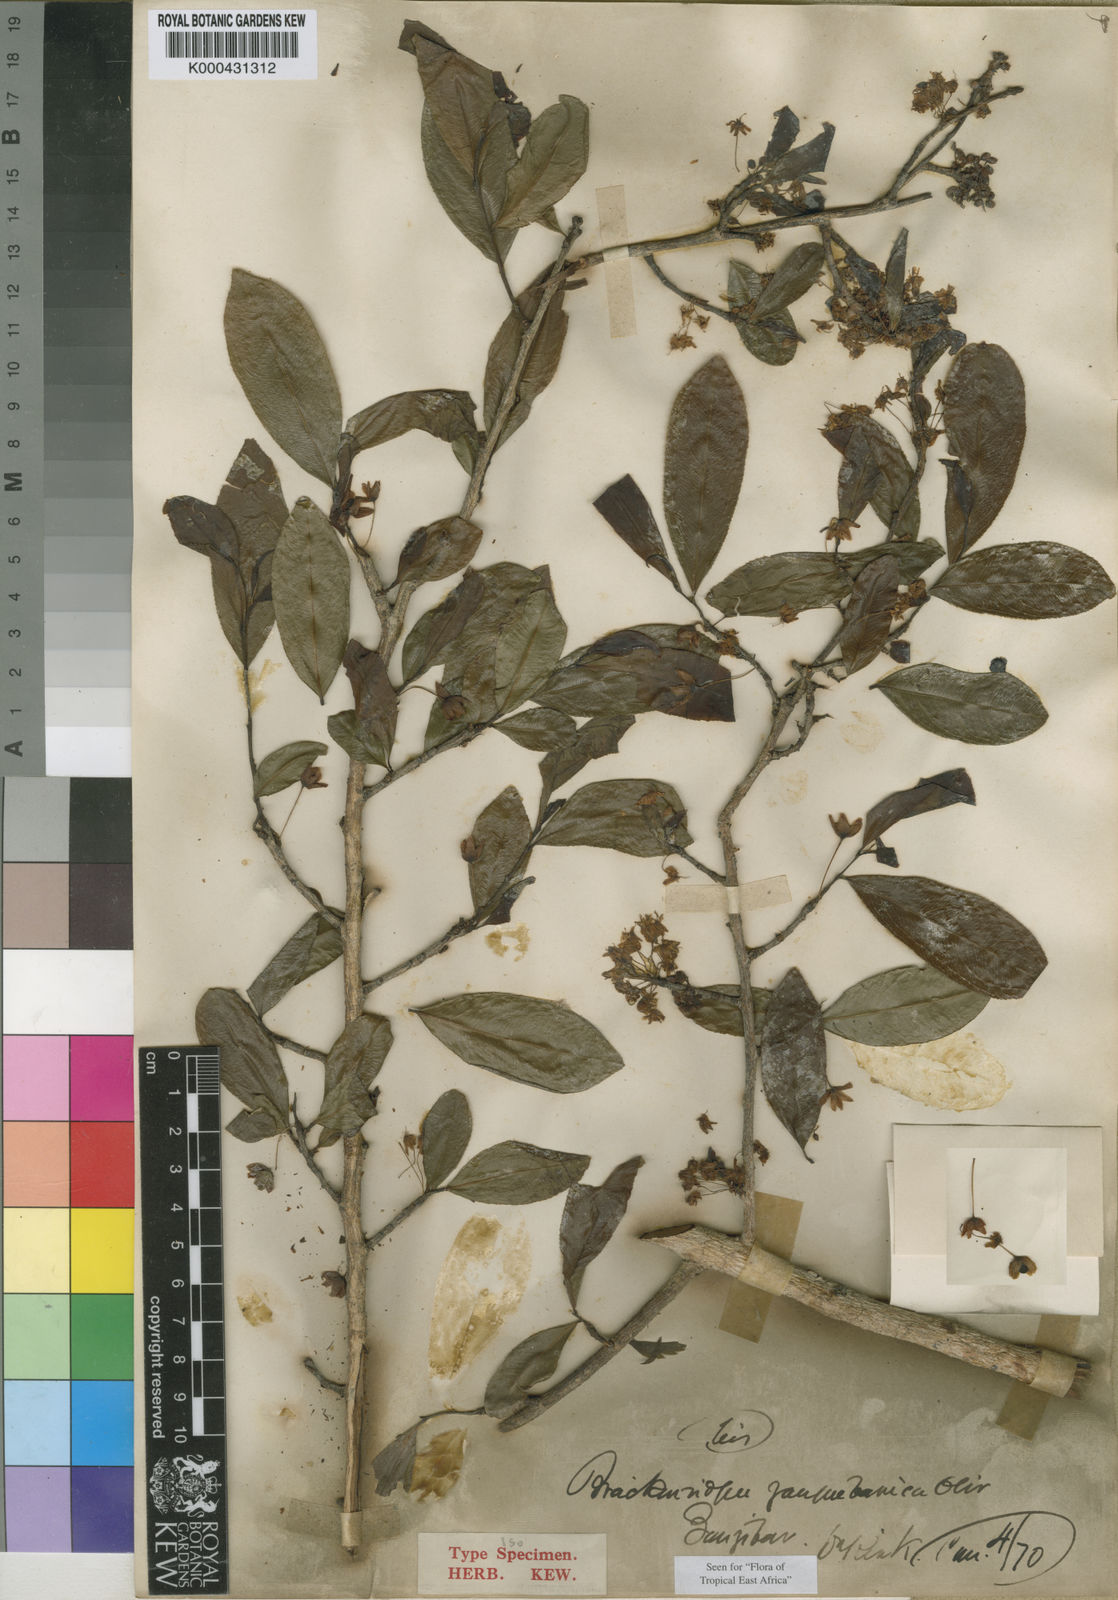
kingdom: Plantae
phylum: Tracheophyta
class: Magnoliopsida
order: Malpighiales
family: Ochnaceae
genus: Brackenridgea
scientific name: Brackenridgea zanguebarica
